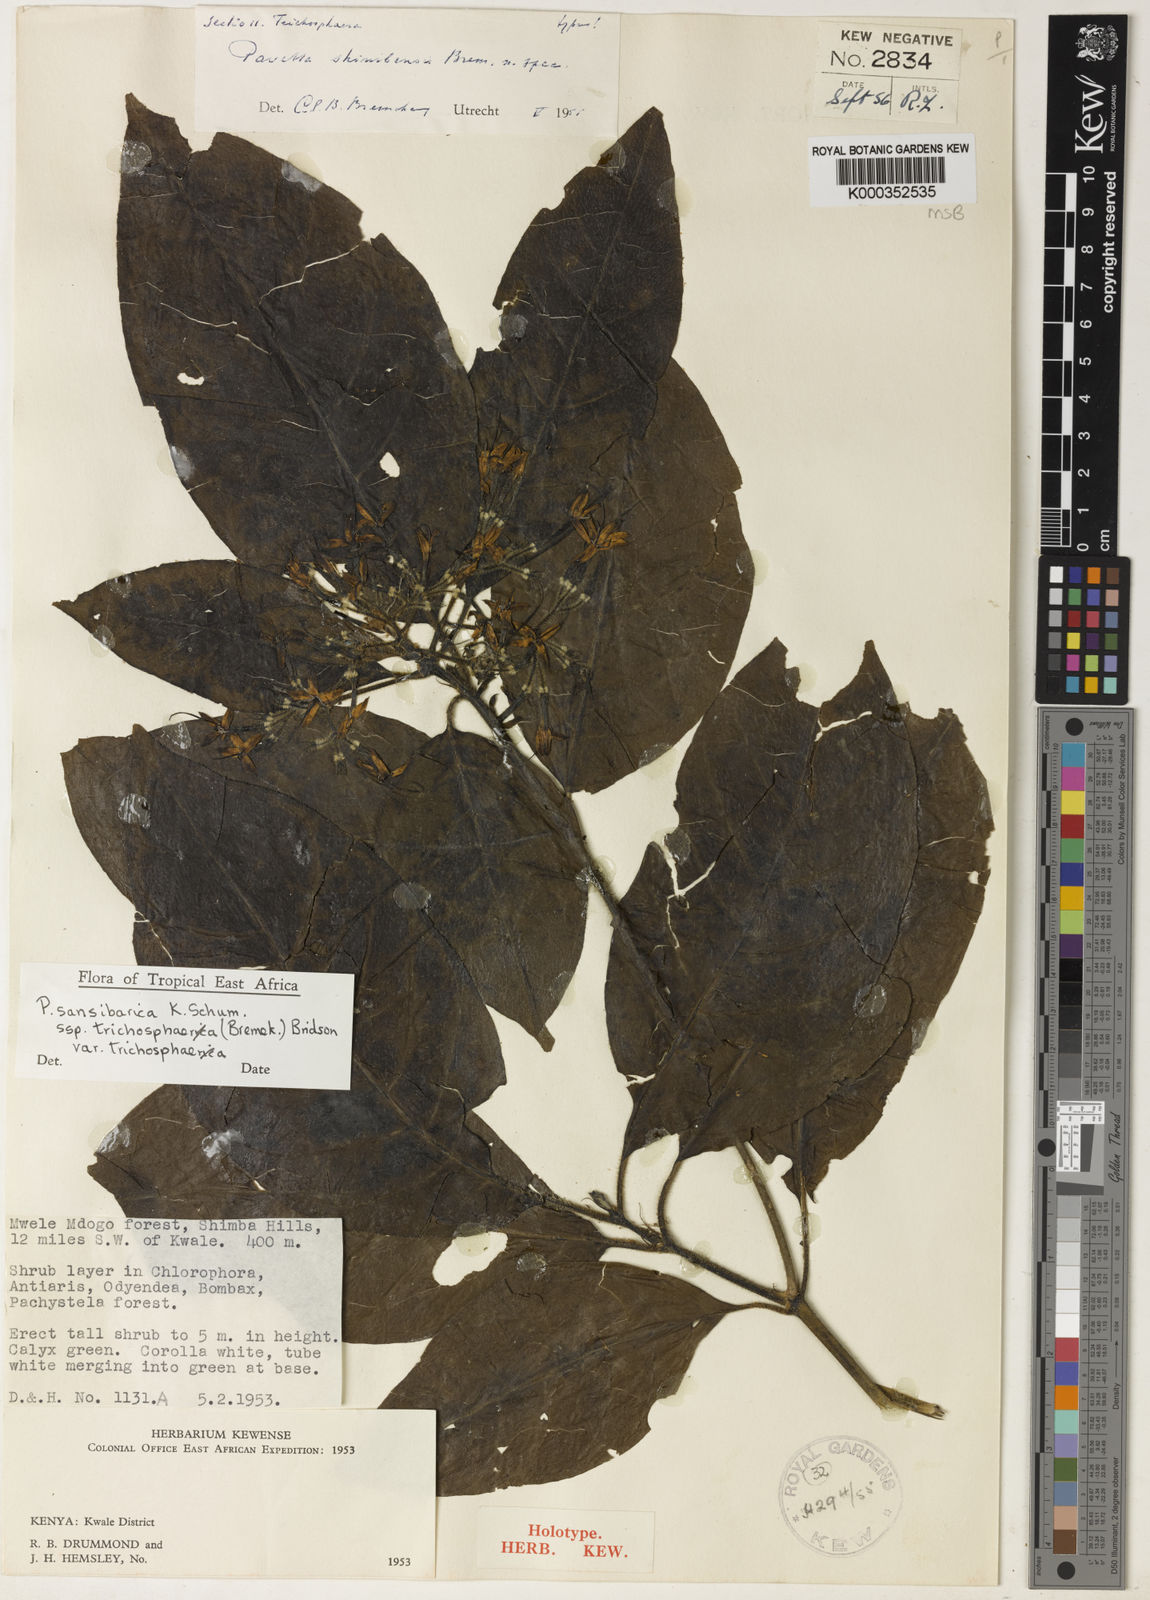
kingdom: Plantae
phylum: Tracheophyta
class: Magnoliopsida
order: Gentianales
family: Rubiaceae
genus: Pavetta
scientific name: Pavetta sansibarica
